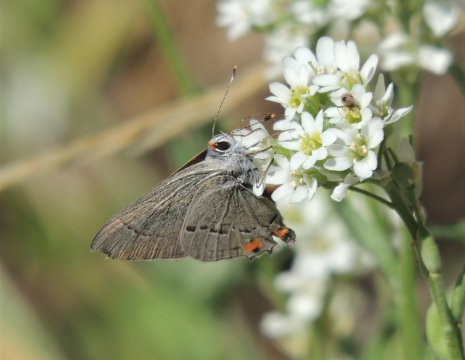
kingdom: Animalia
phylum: Arthropoda
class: Insecta
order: Lepidoptera
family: Lycaenidae
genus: Strymon
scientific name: Strymon melinus
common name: Gray Hairstreak
